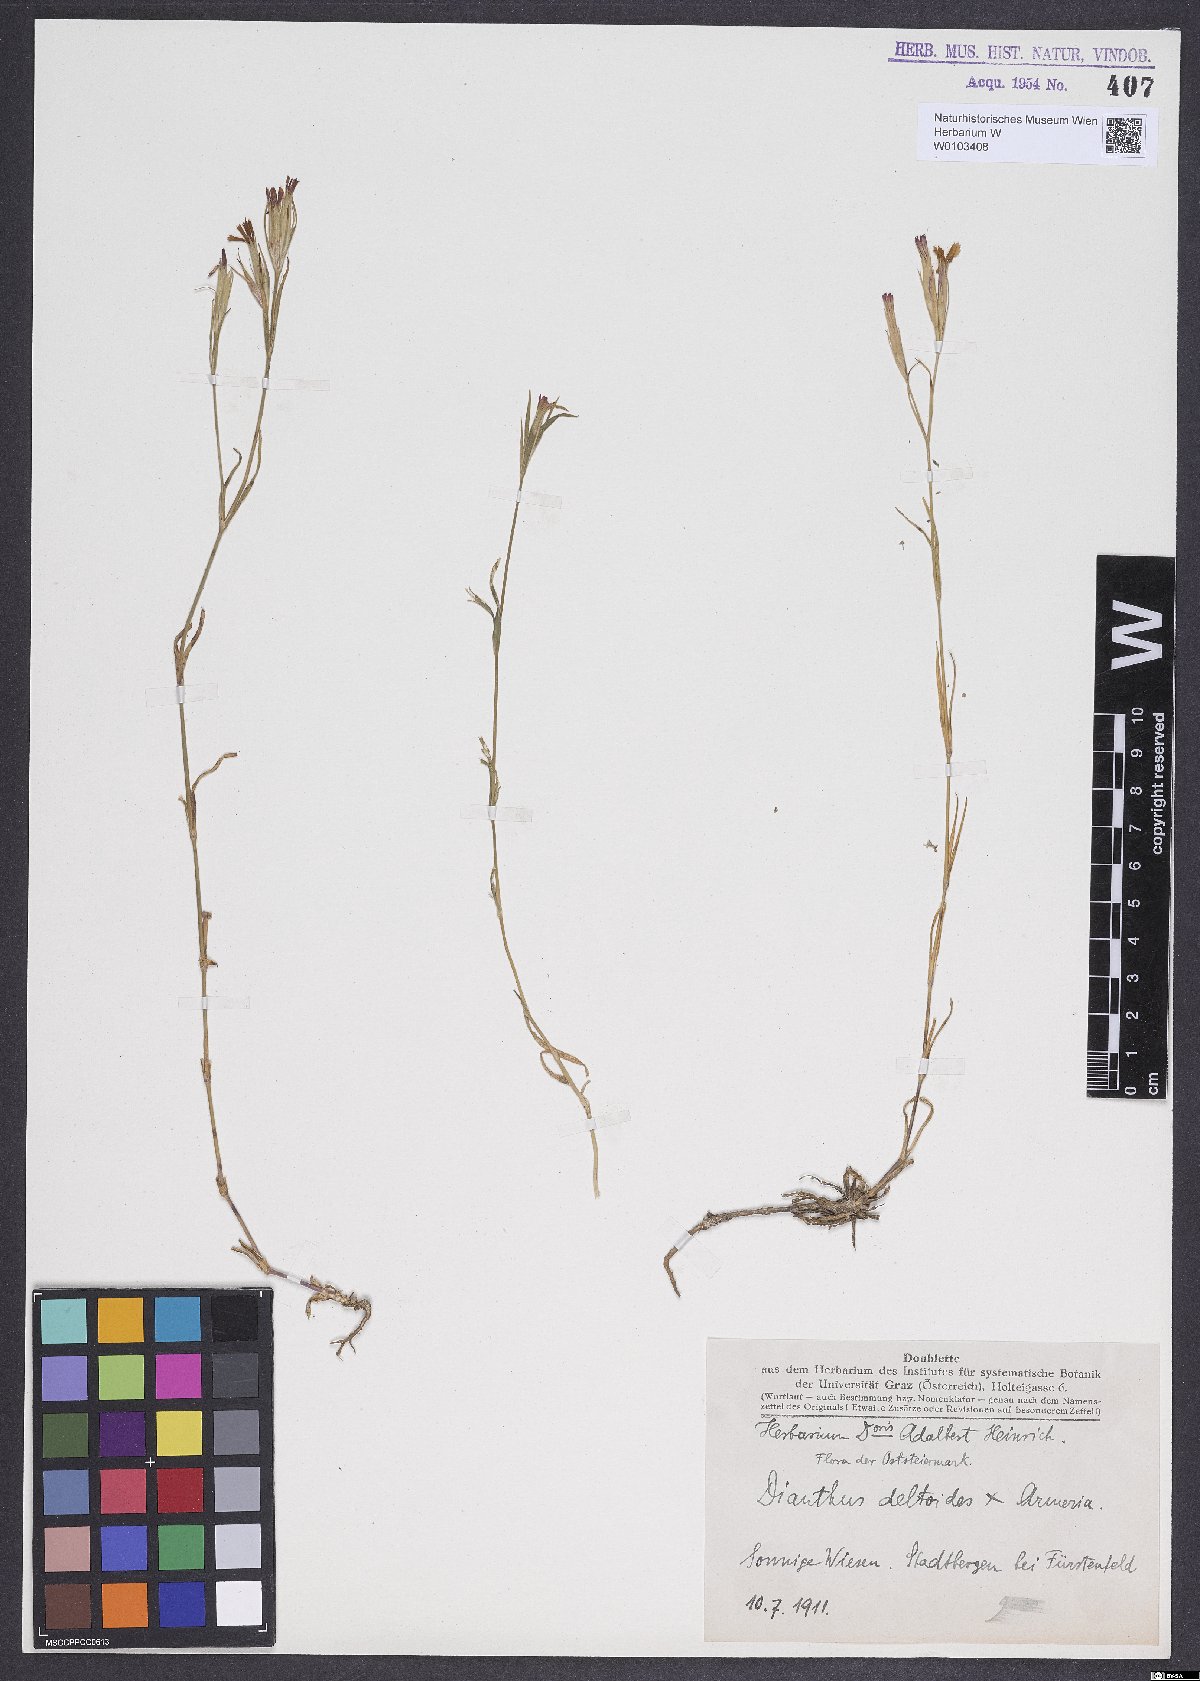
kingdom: Plantae
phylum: Tracheophyta
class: Magnoliopsida
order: Caryophyllales
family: Caryophyllaceae
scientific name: Caryophyllaceae
